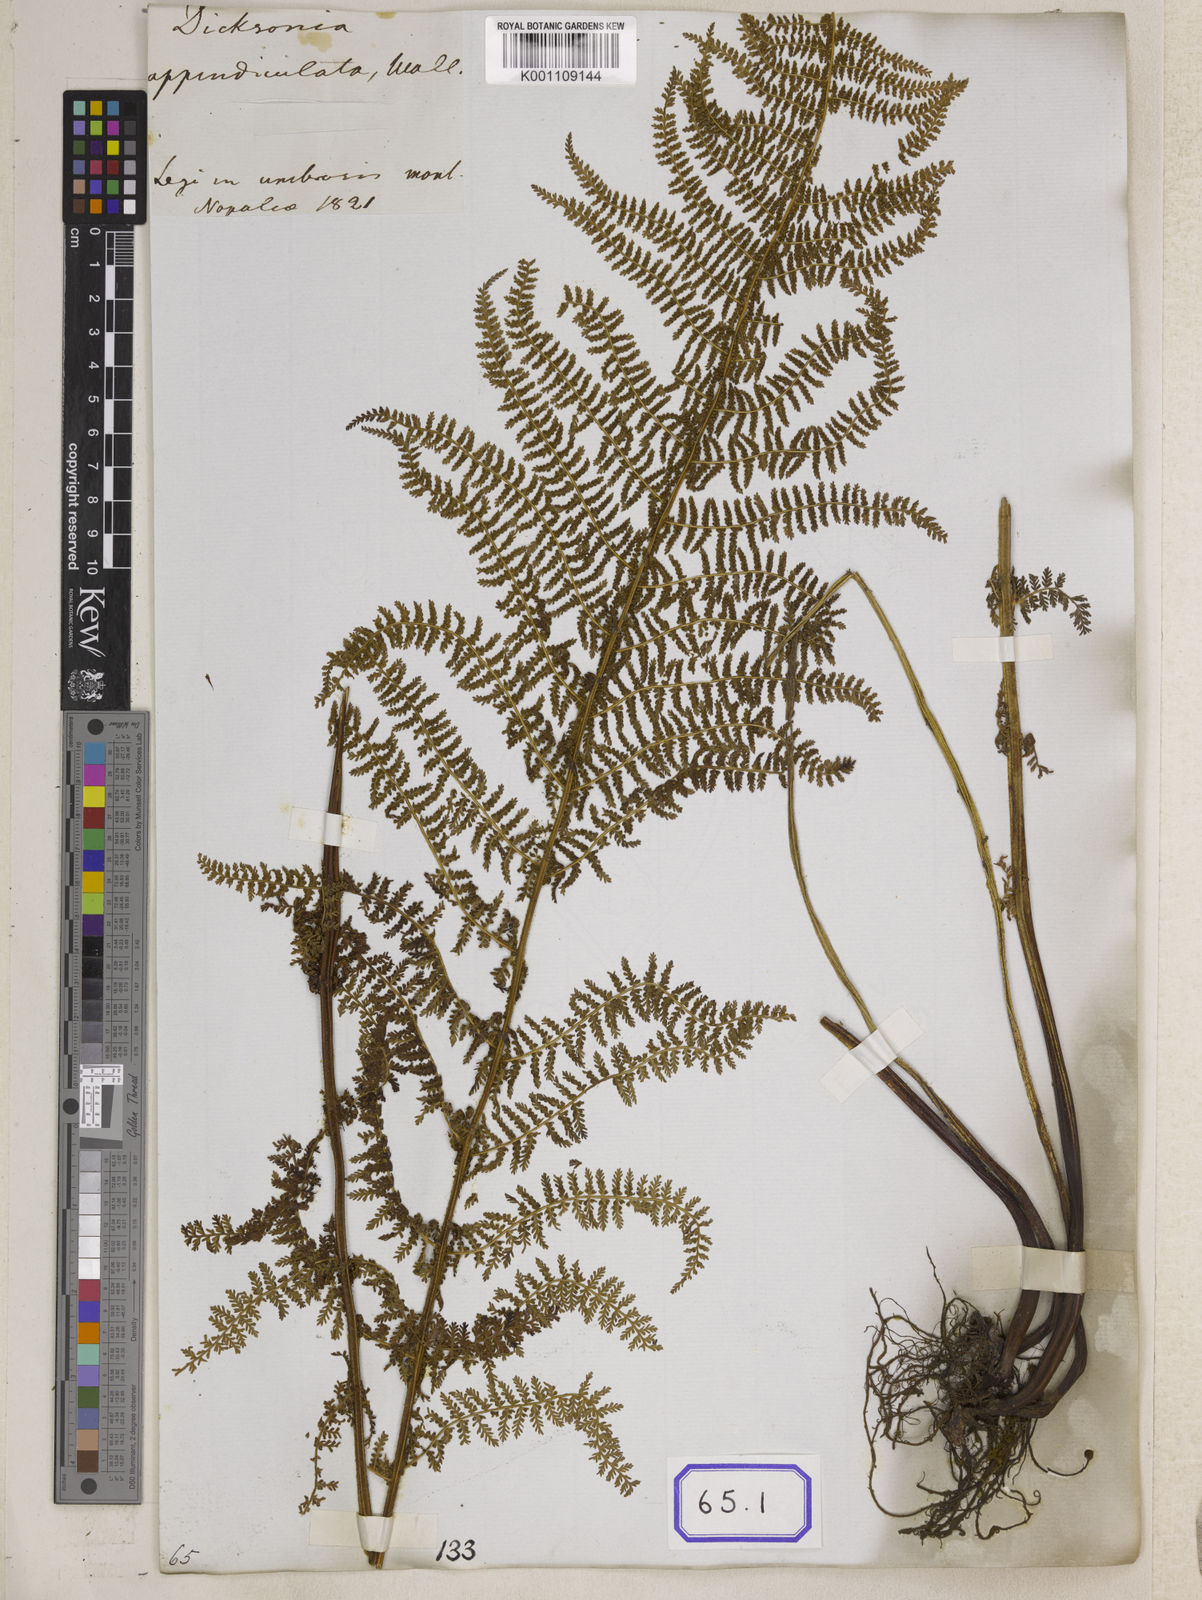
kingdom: Plantae
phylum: Tracheophyta
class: Polypodiopsida
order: Polypodiales
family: Dennstaedtiaceae
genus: Sitobolium
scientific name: Sitobolium appendiculatum
